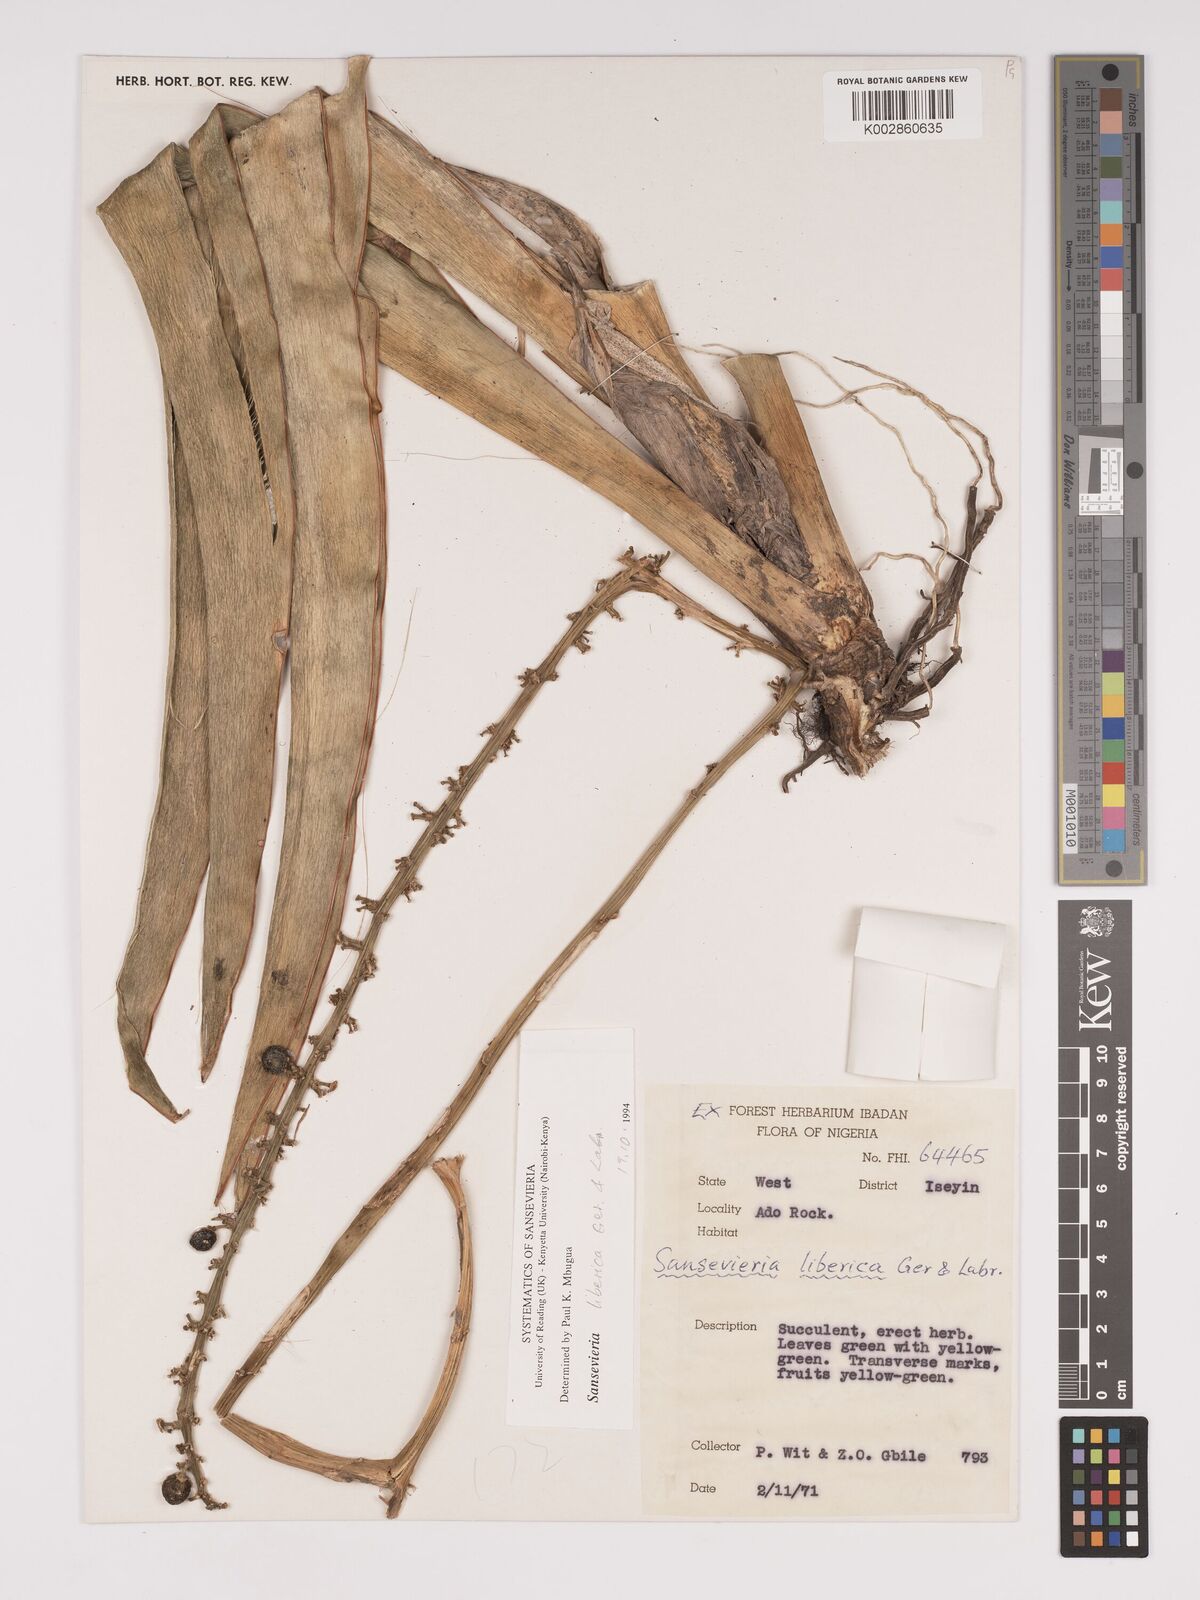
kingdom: Plantae
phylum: Tracheophyta
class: Liliopsida
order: Asparagales
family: Asparagaceae
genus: Dracaena
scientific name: Dracaena liberica
